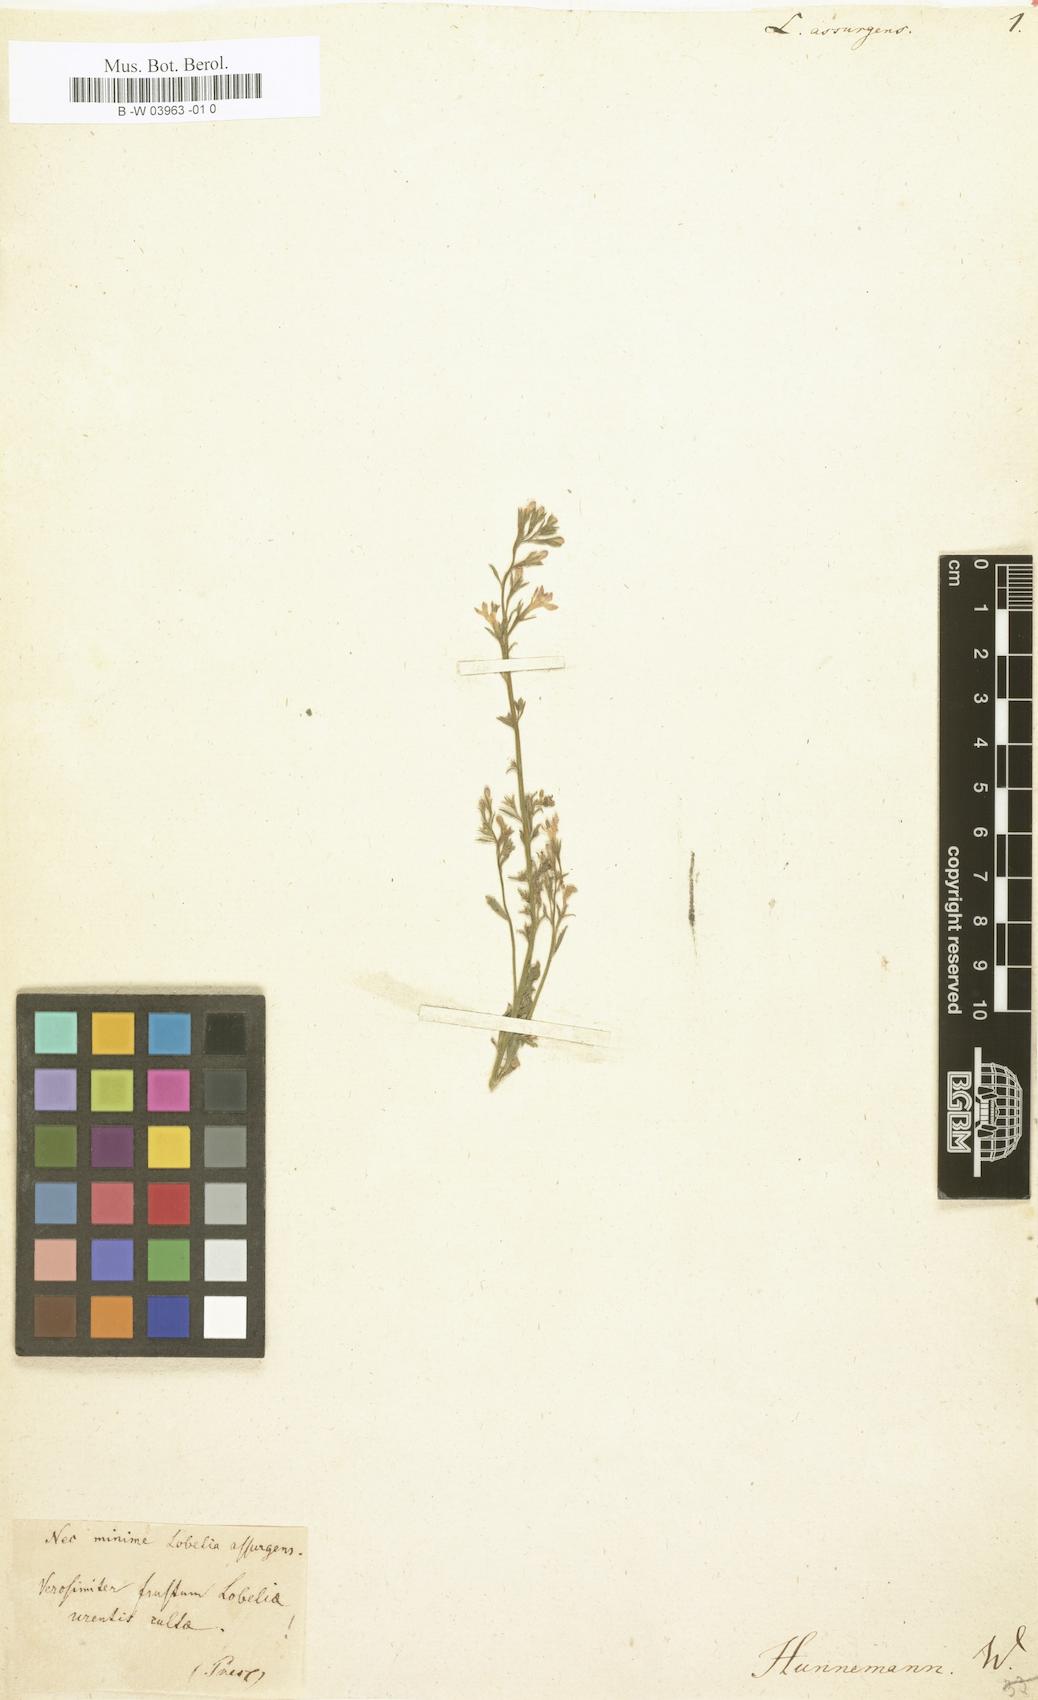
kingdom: Plantae
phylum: Tracheophyta
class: Magnoliopsida
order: Asterales
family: Campanulaceae
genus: Lobelia
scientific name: Lobelia assurgens
